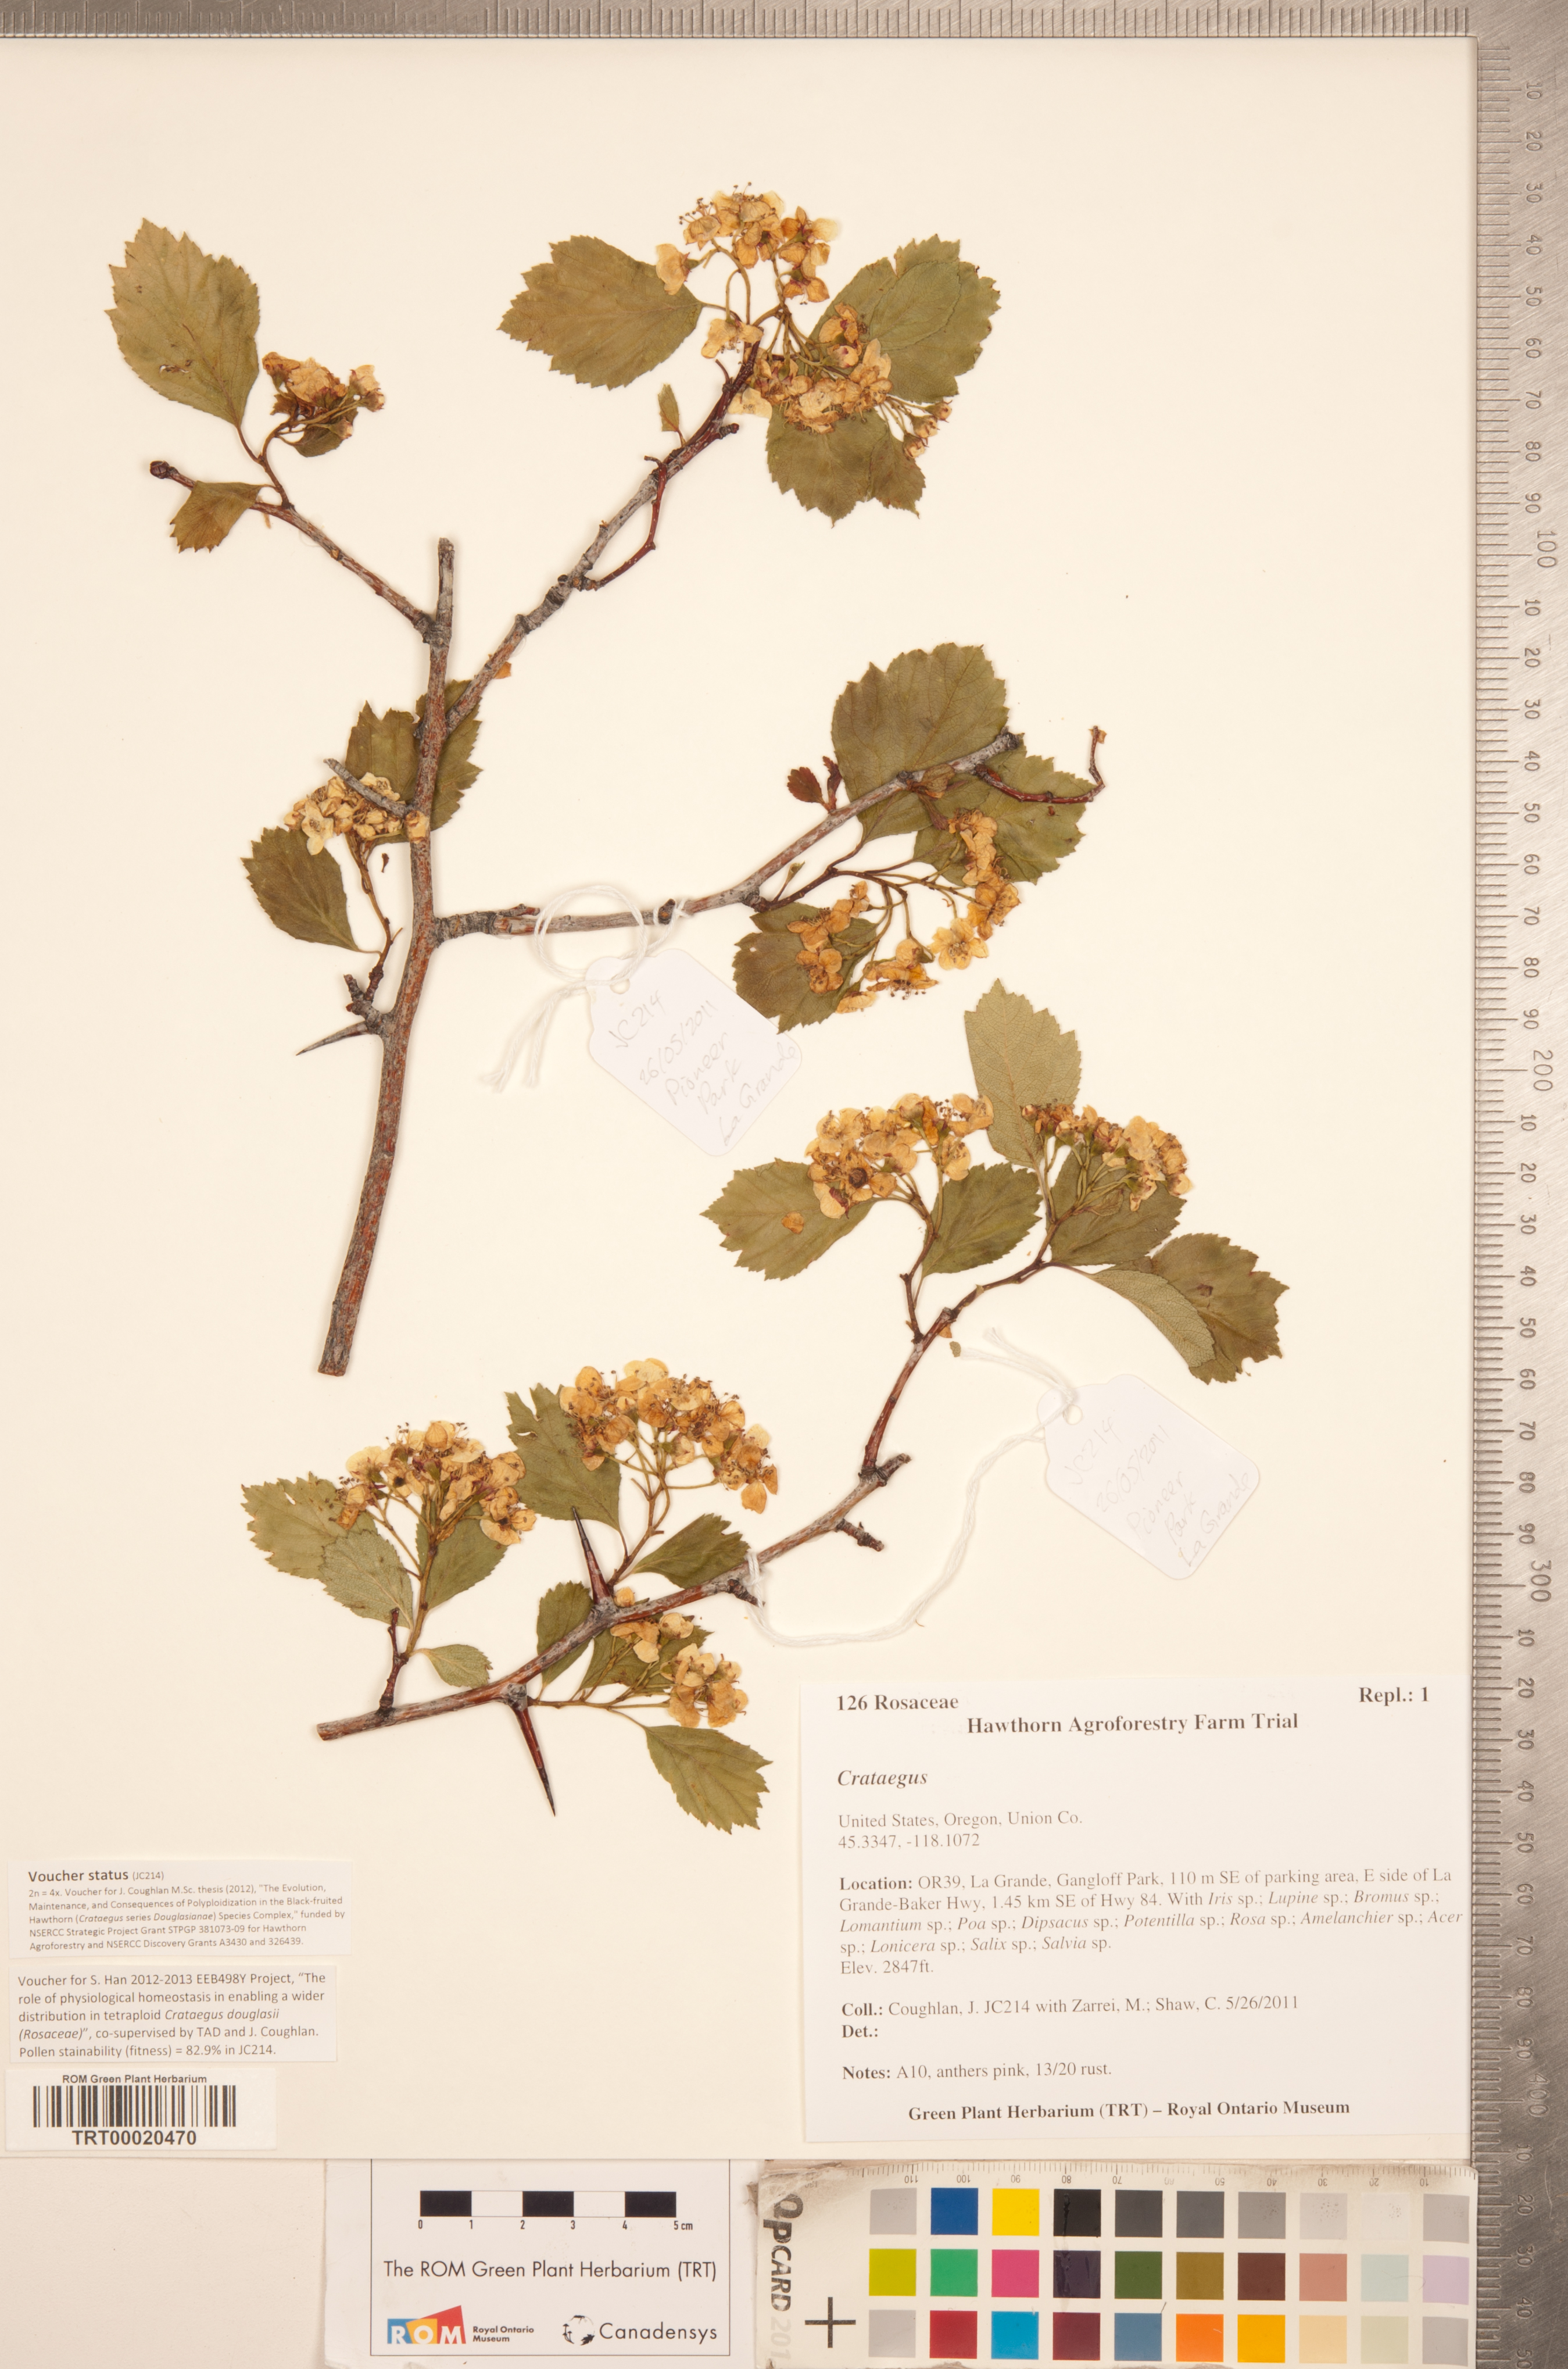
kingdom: Plantae
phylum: Tracheophyta
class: Magnoliopsida
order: Rosales
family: Rosaceae
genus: Crataegus
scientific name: Crataegus
